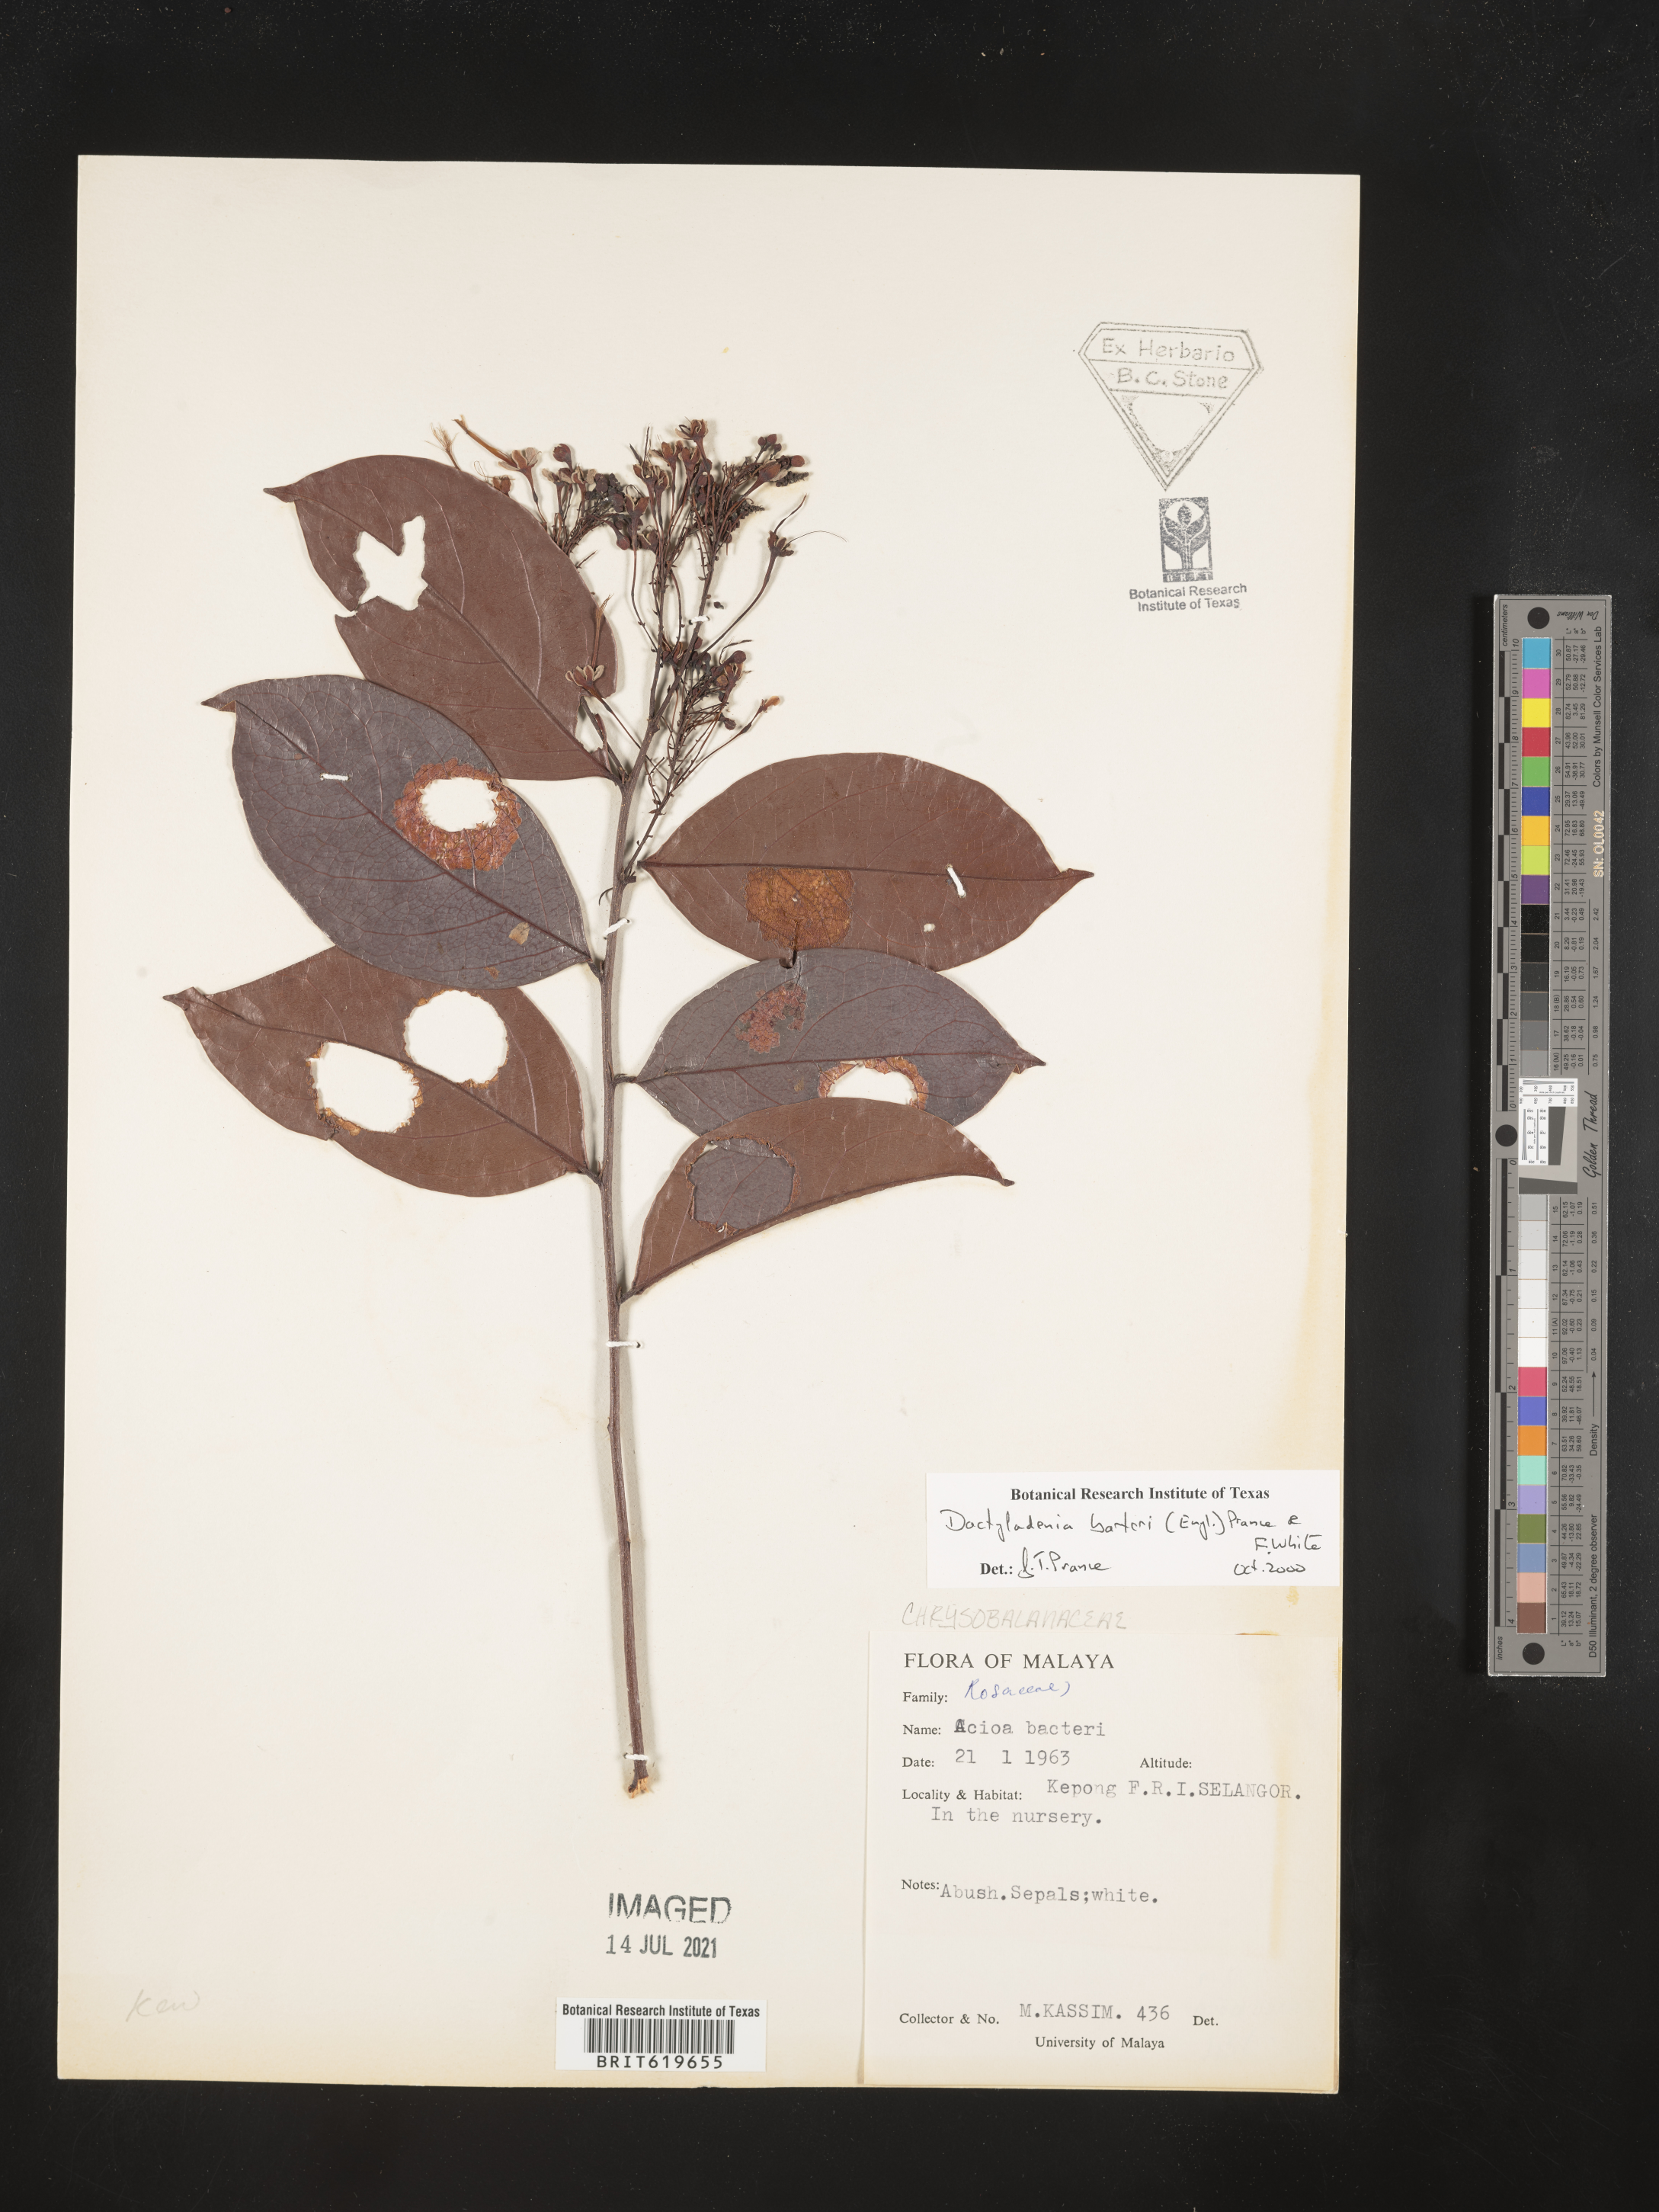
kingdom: Plantae
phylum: Tracheophyta
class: Magnoliopsida
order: Malpighiales
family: Chrysobalanaceae
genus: Dactyladenia
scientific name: Dactyladenia barteri
